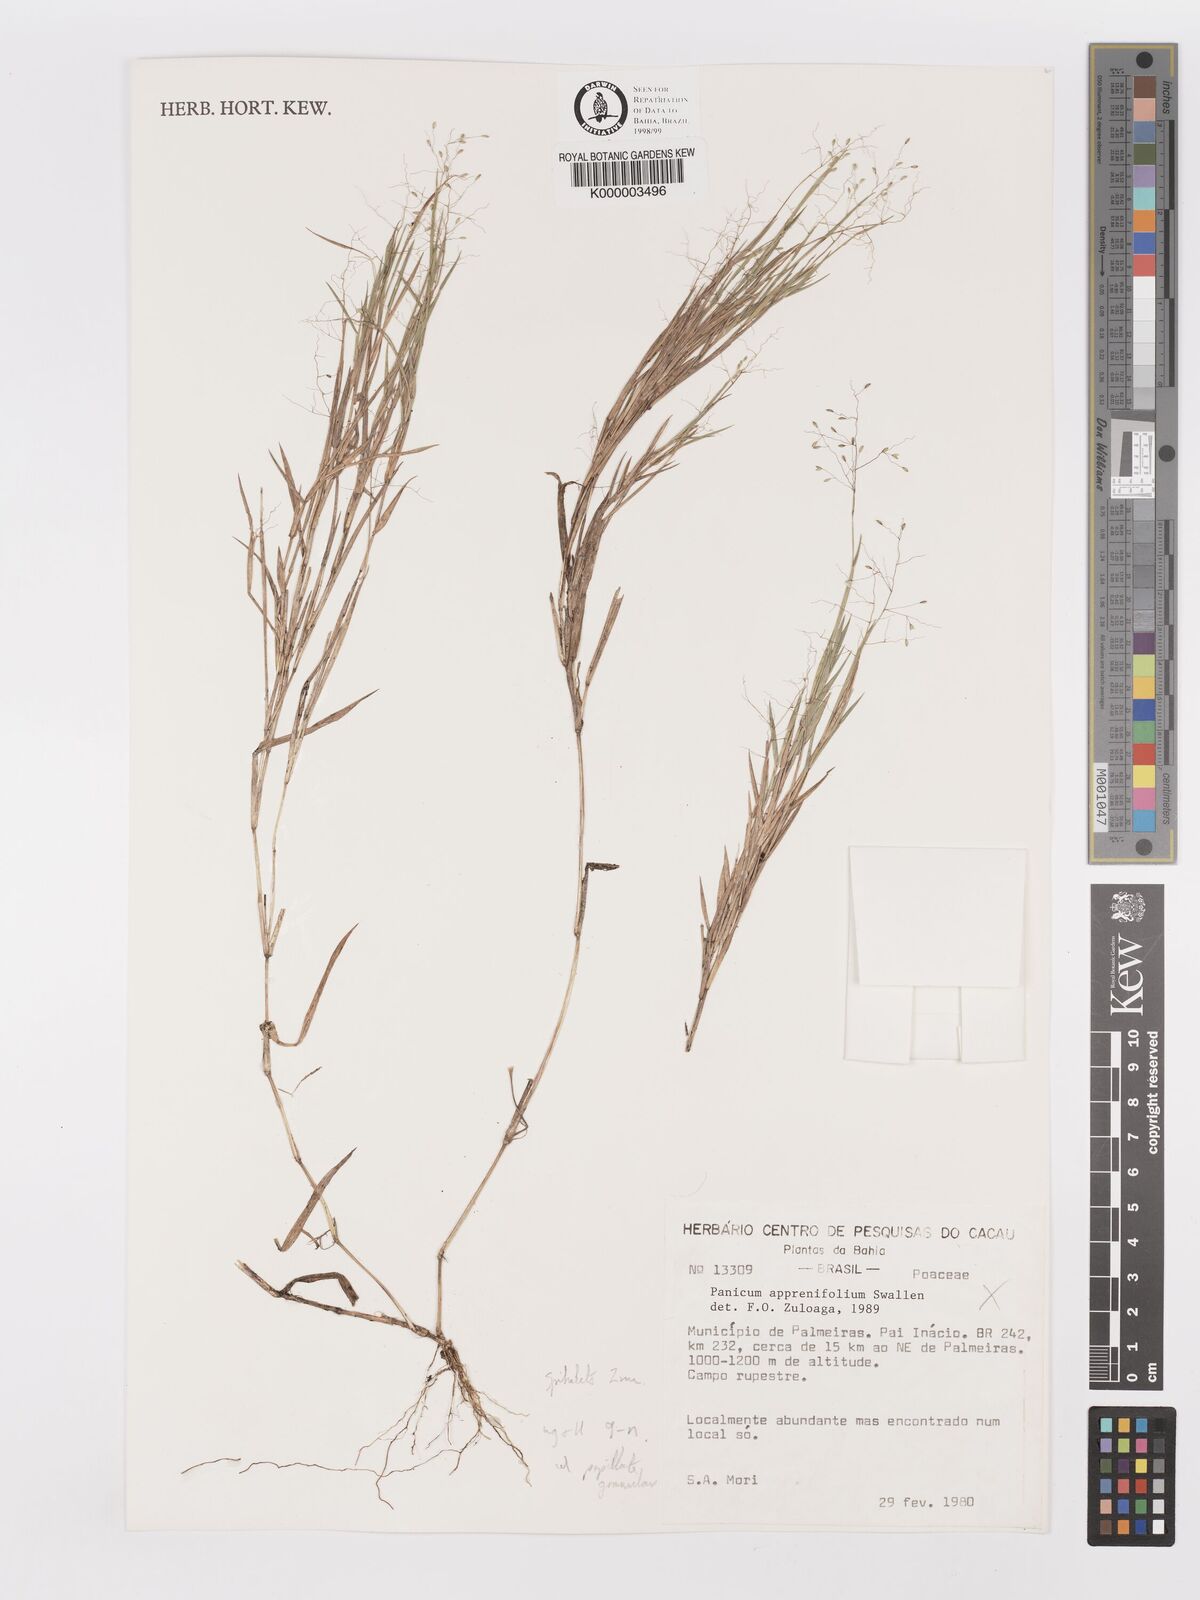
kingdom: Plantae
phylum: Tracheophyta
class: Liliopsida
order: Poales
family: Poaceae
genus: Panicum
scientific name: Panicum
